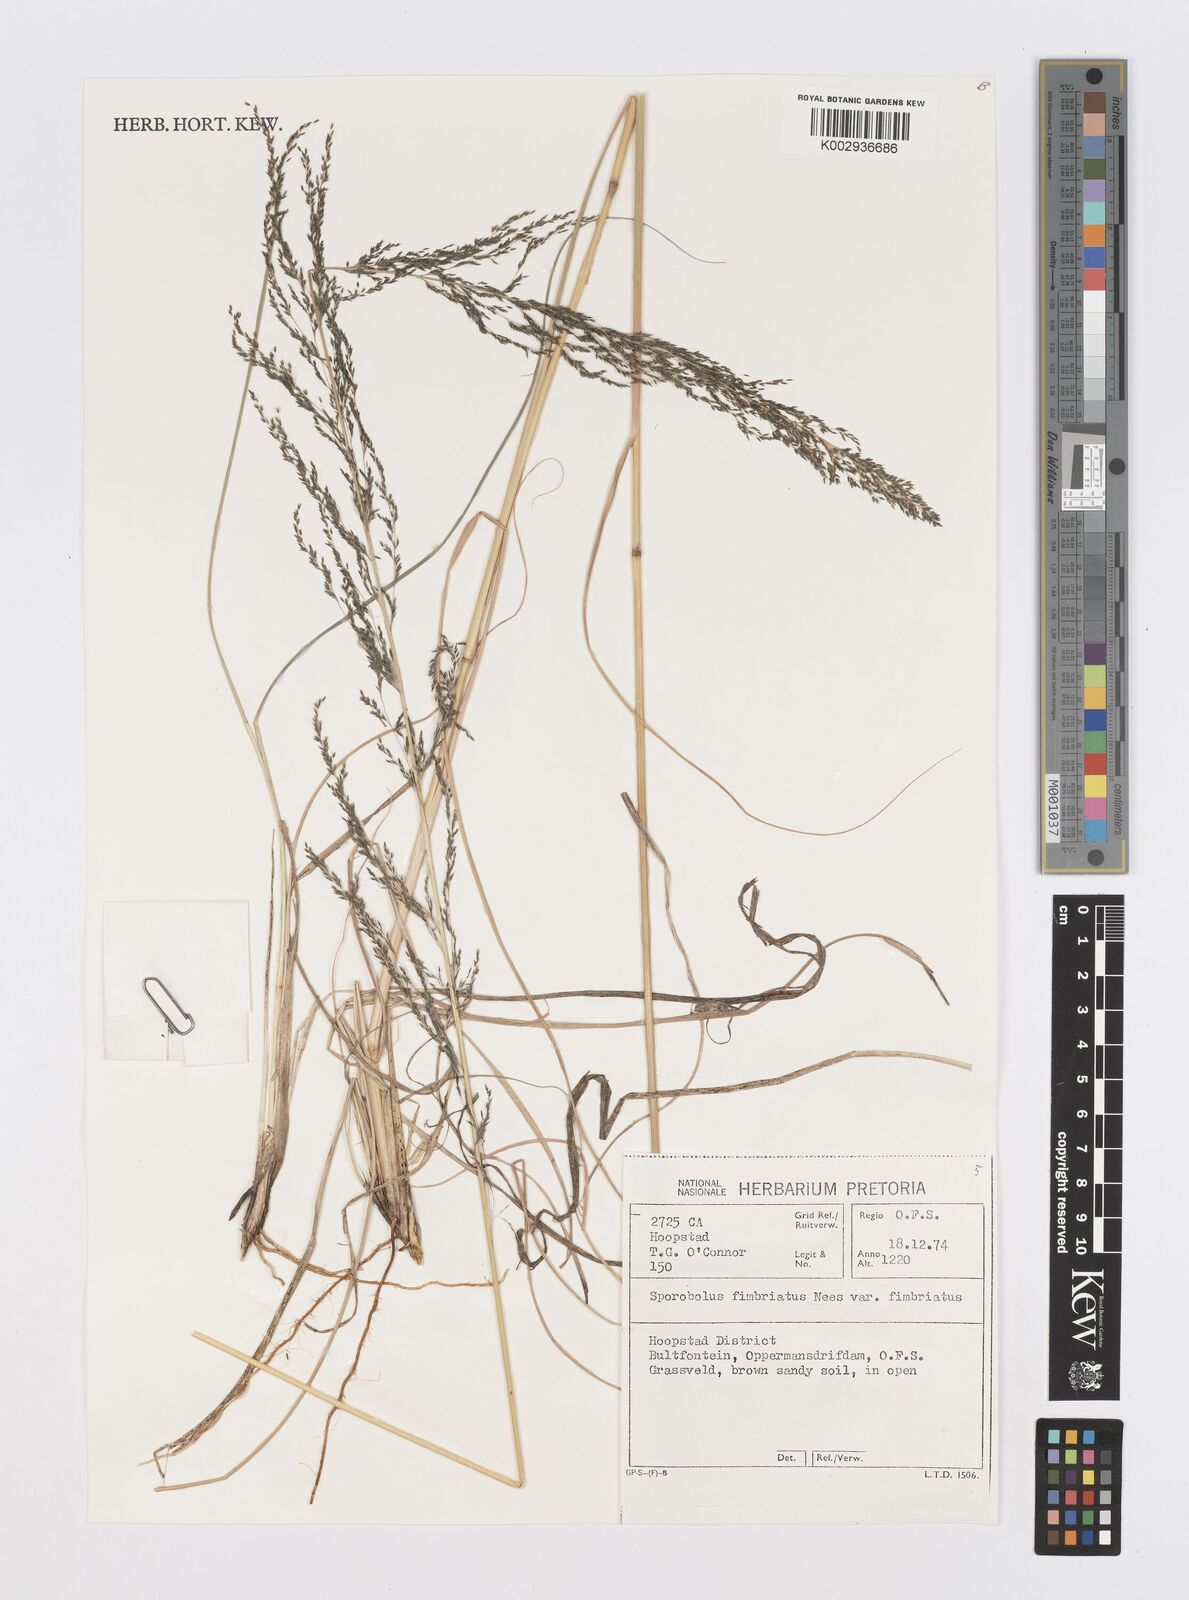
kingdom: Plantae
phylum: Tracheophyta
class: Liliopsida
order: Poales
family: Poaceae
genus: Sporobolus
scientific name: Sporobolus fimbriatus
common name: Fringed dropseed
